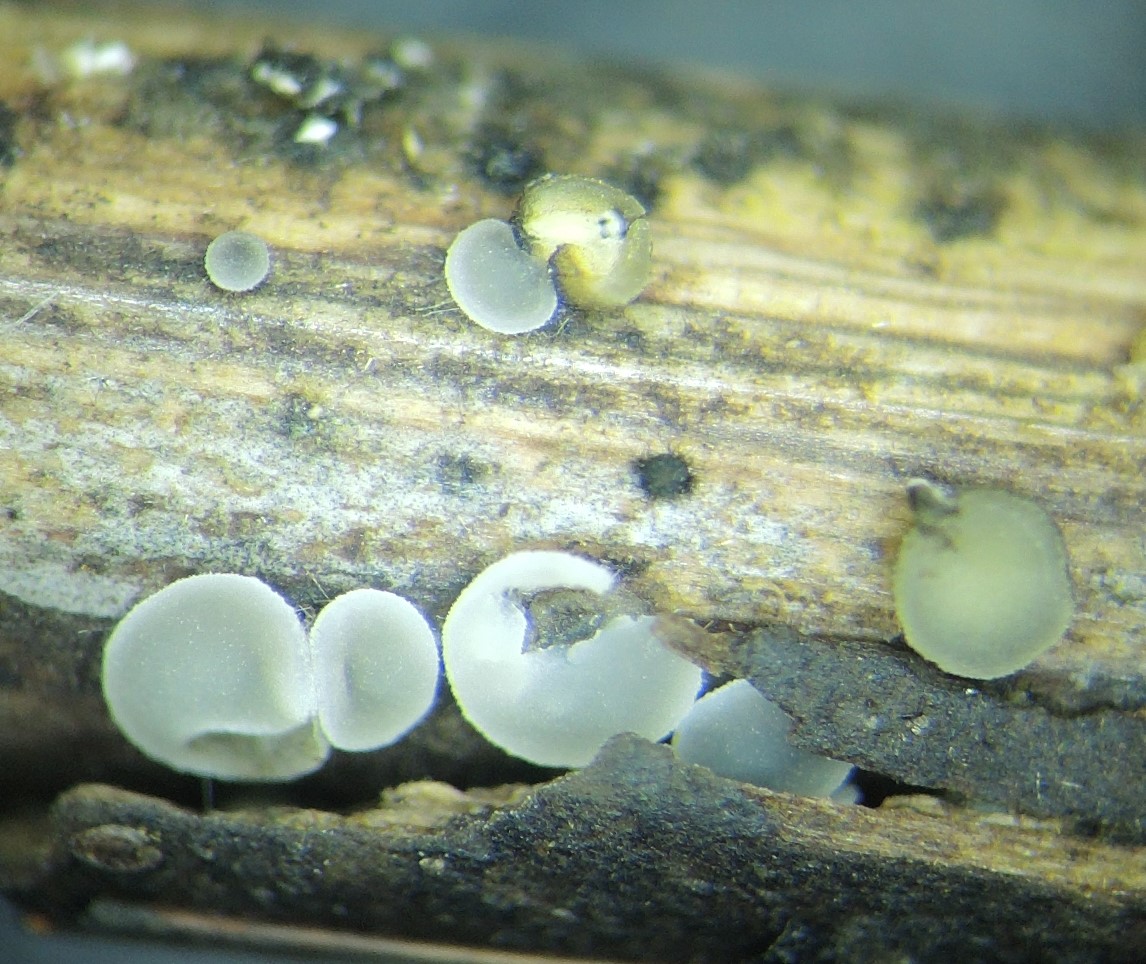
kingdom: Fungi
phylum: Ascomycota
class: Leotiomycetes
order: Helotiales
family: Mollisiaceae
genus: Mollisia
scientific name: Mollisia hydrophila
